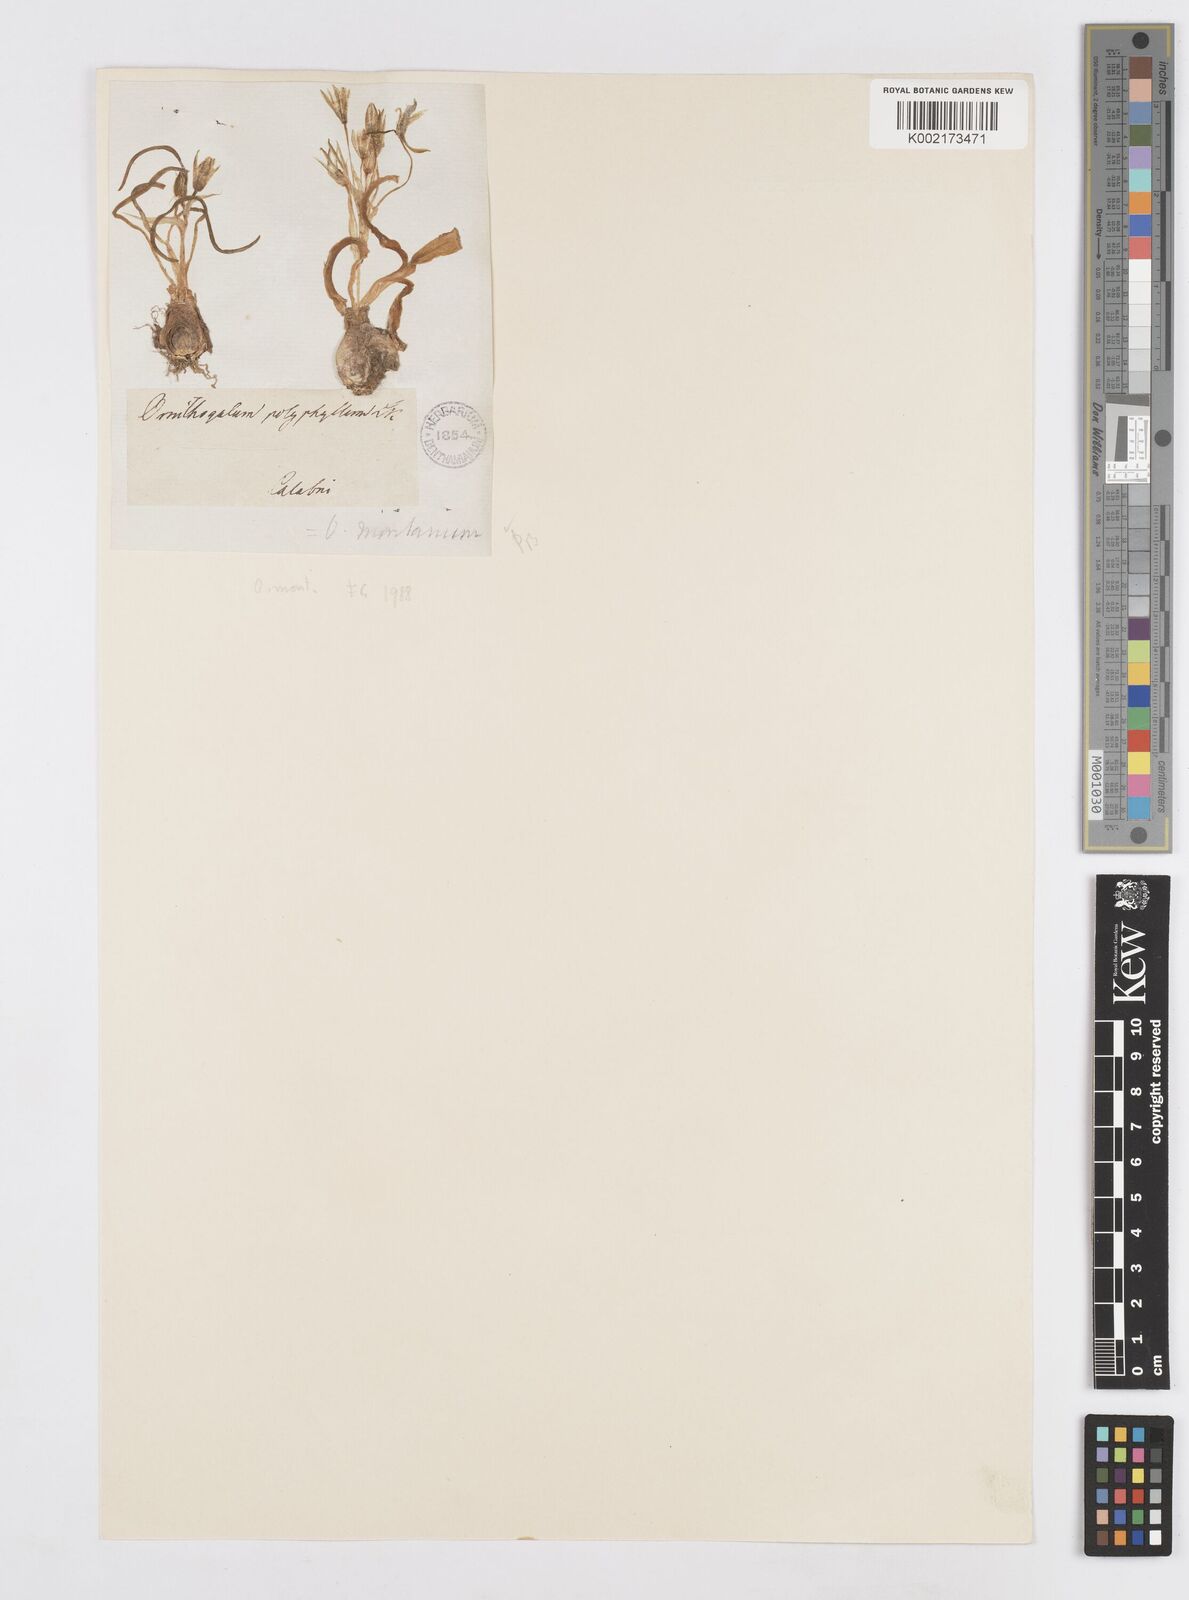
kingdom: Plantae
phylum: Tracheophyta
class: Liliopsida
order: Asparagales
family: Asparagaceae
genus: Ornithogalum
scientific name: Ornithogalum montanum
